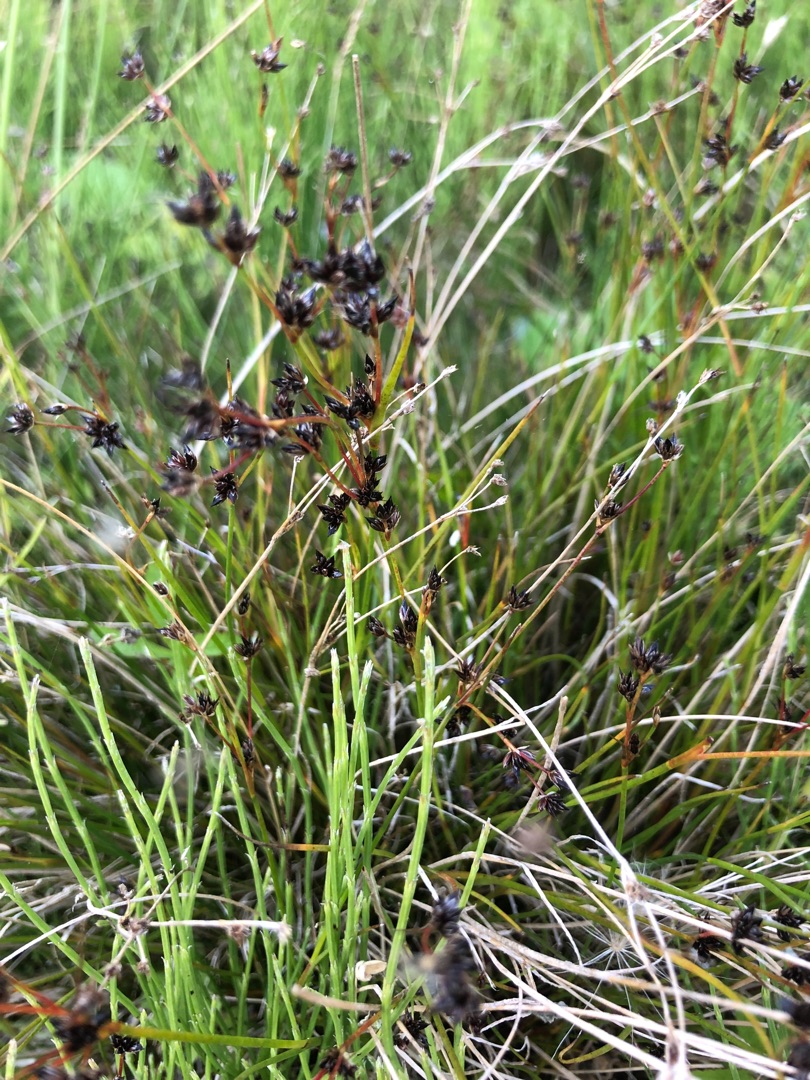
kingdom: Plantae
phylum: Tracheophyta
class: Liliopsida
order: Poales
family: Juncaceae
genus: Juncus
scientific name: Juncus articulatus
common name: Glanskapslet siv
